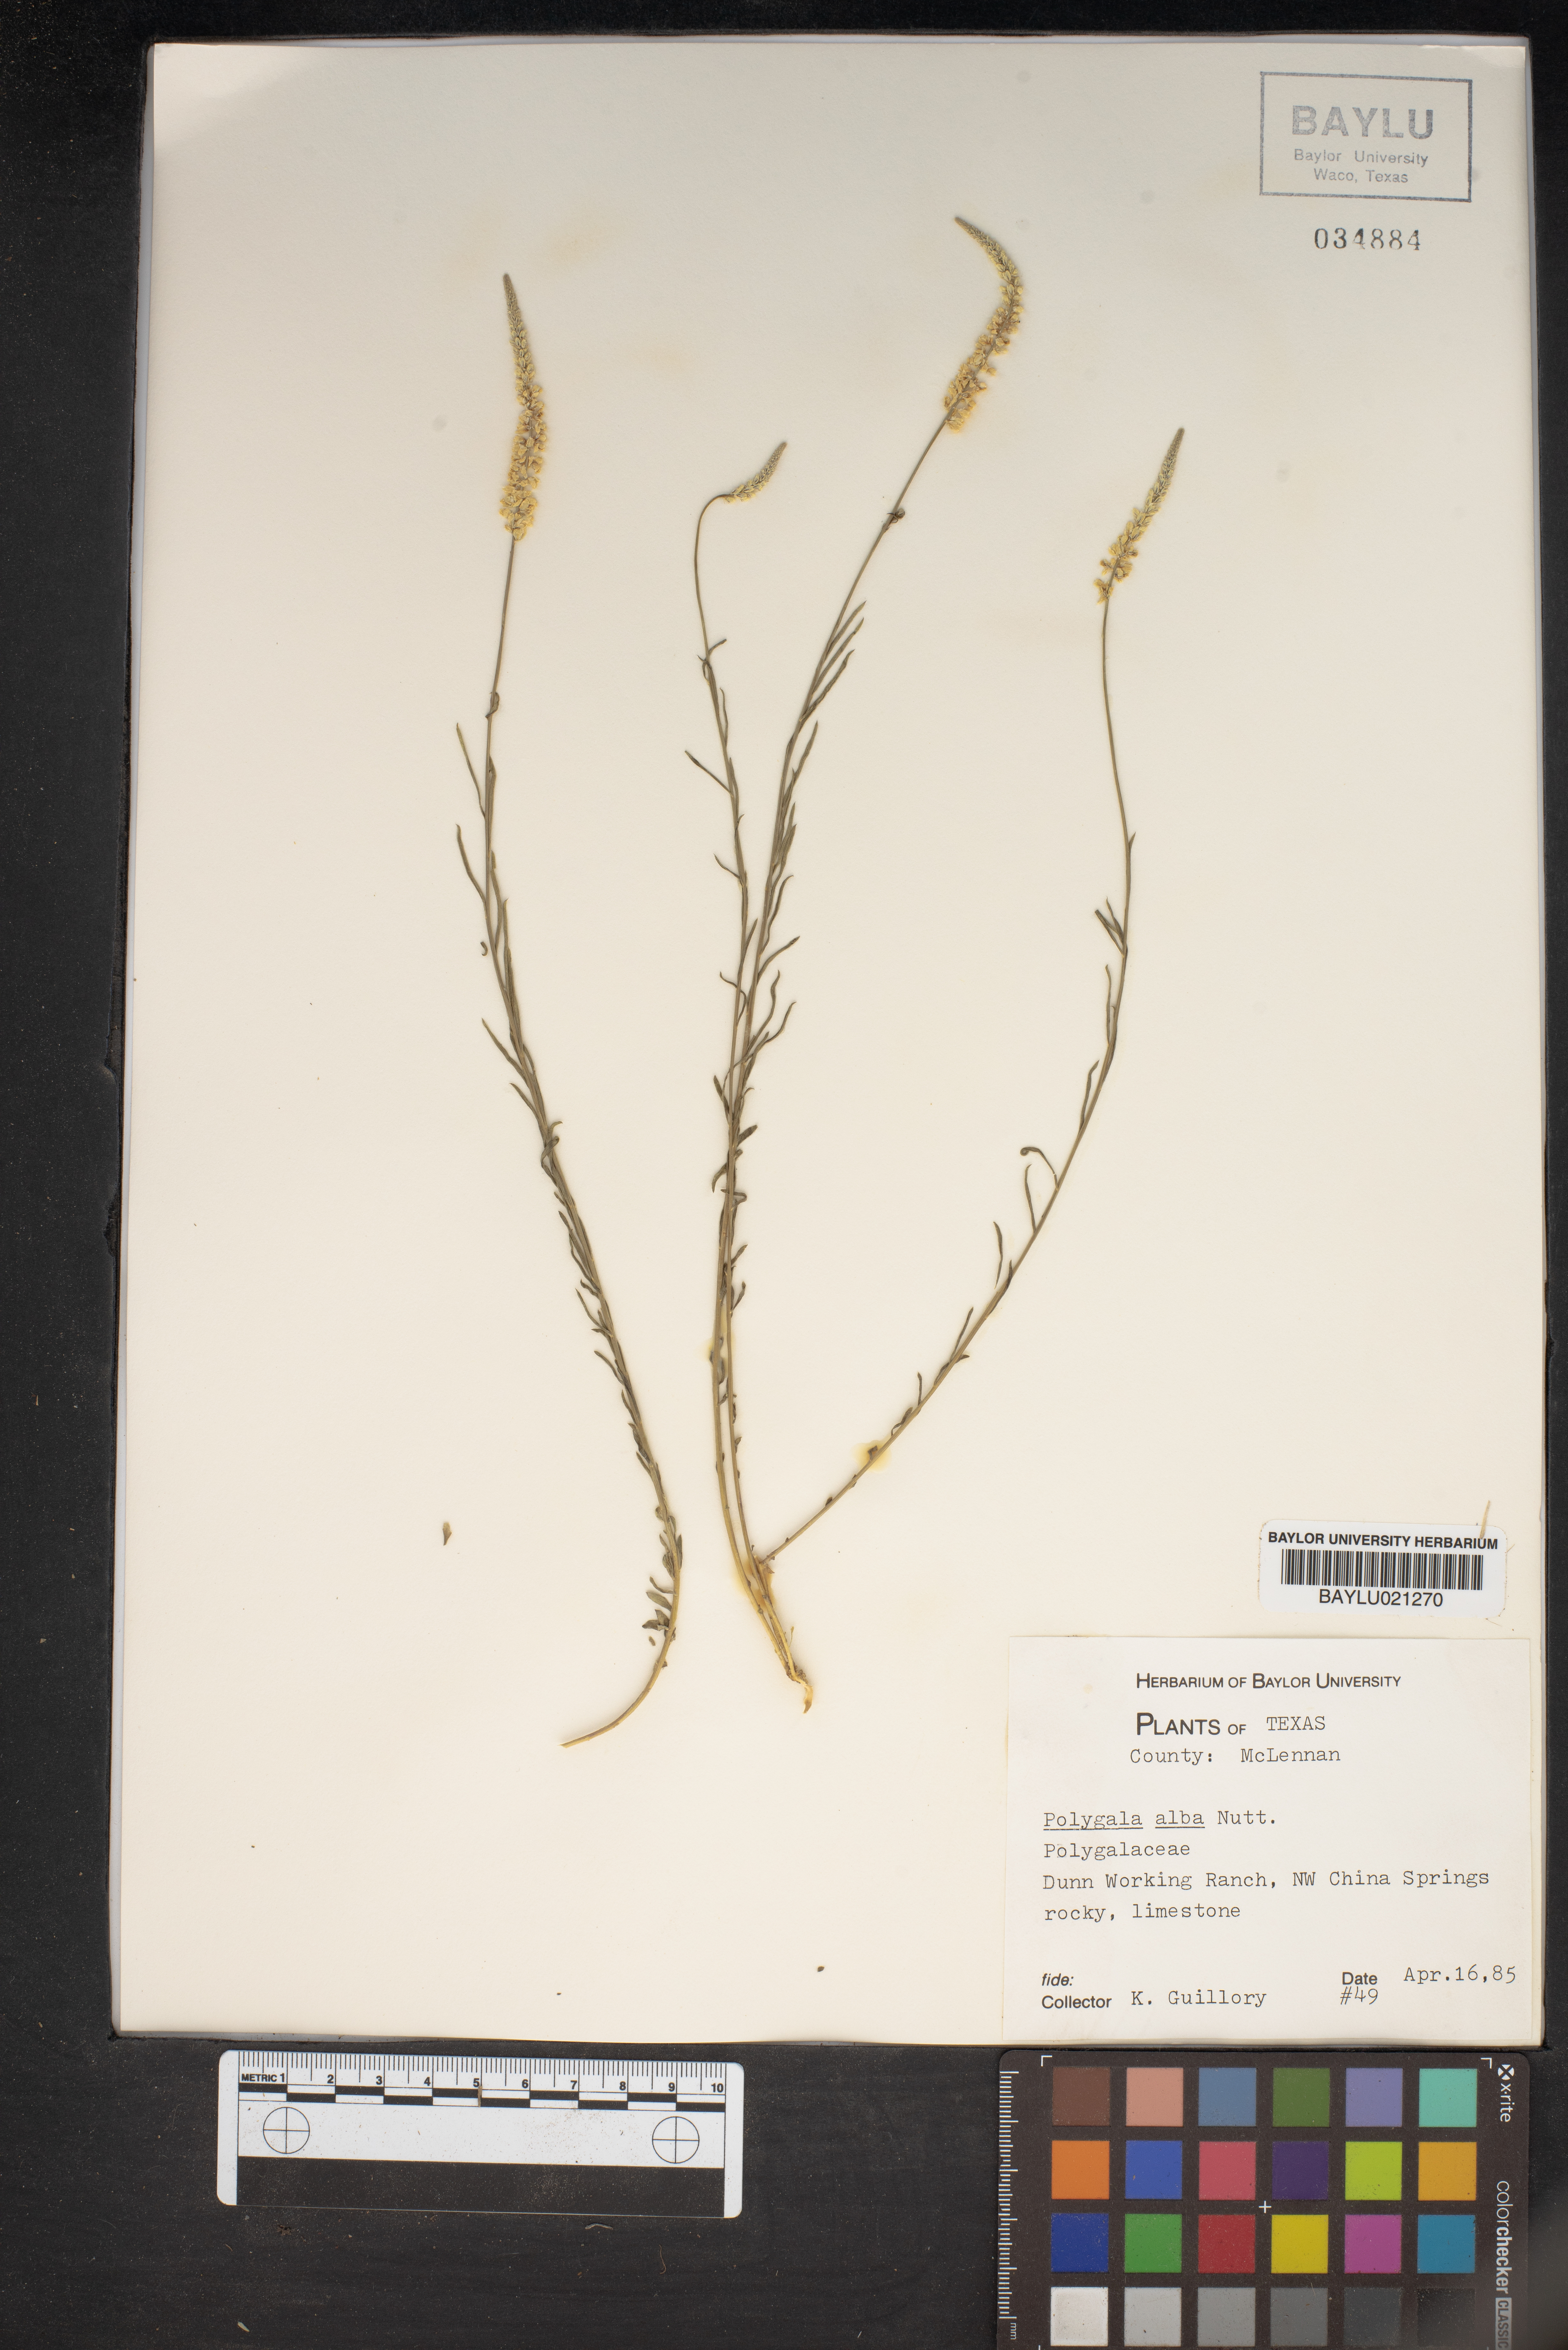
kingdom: Plantae
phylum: Tracheophyta
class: Magnoliopsida
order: Fabales
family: Polygalaceae
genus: Polygala
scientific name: Polygala alba
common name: White milkwort
